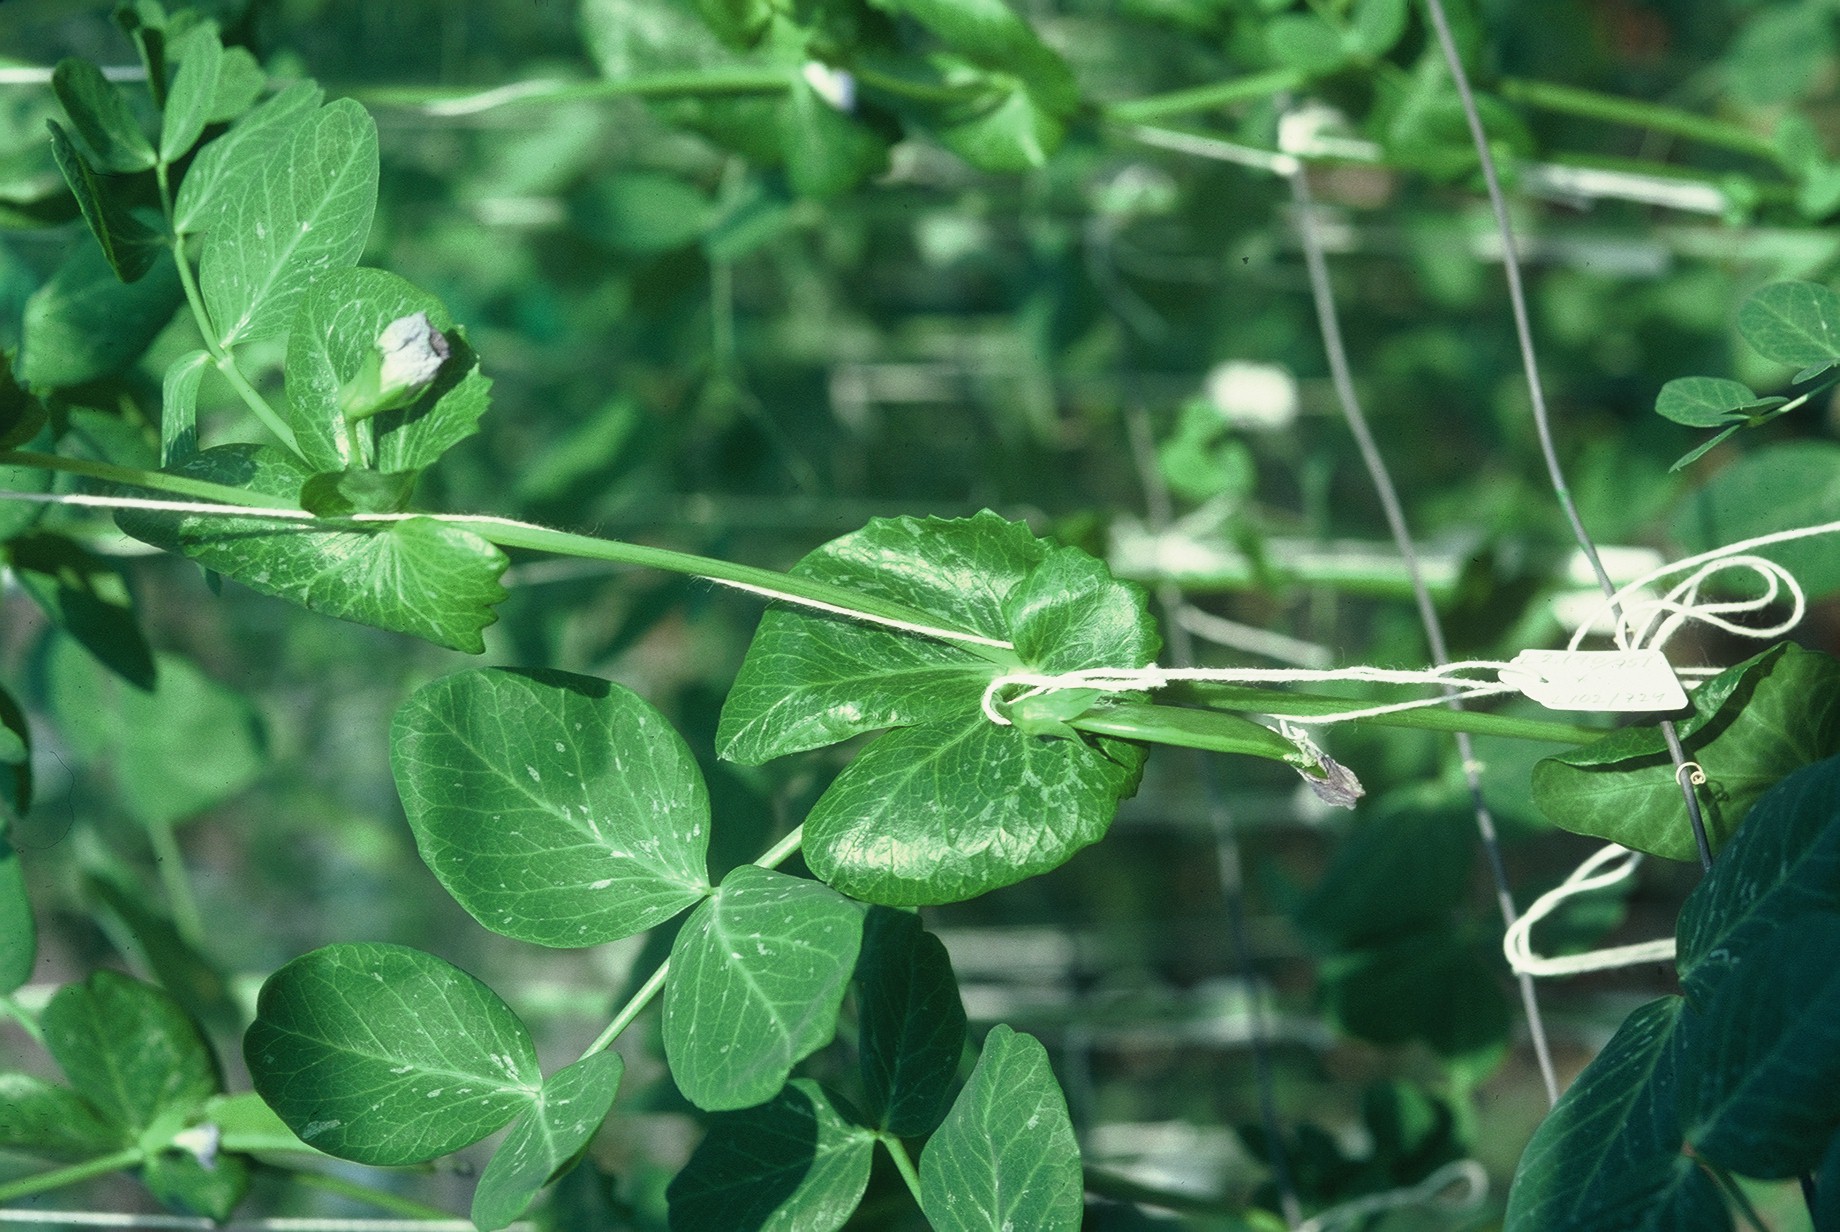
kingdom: Plantae
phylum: Tracheophyta
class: Magnoliopsida
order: Fabales
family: Fabaceae
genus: Lathyrus
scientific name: Lathyrus oleraceus
